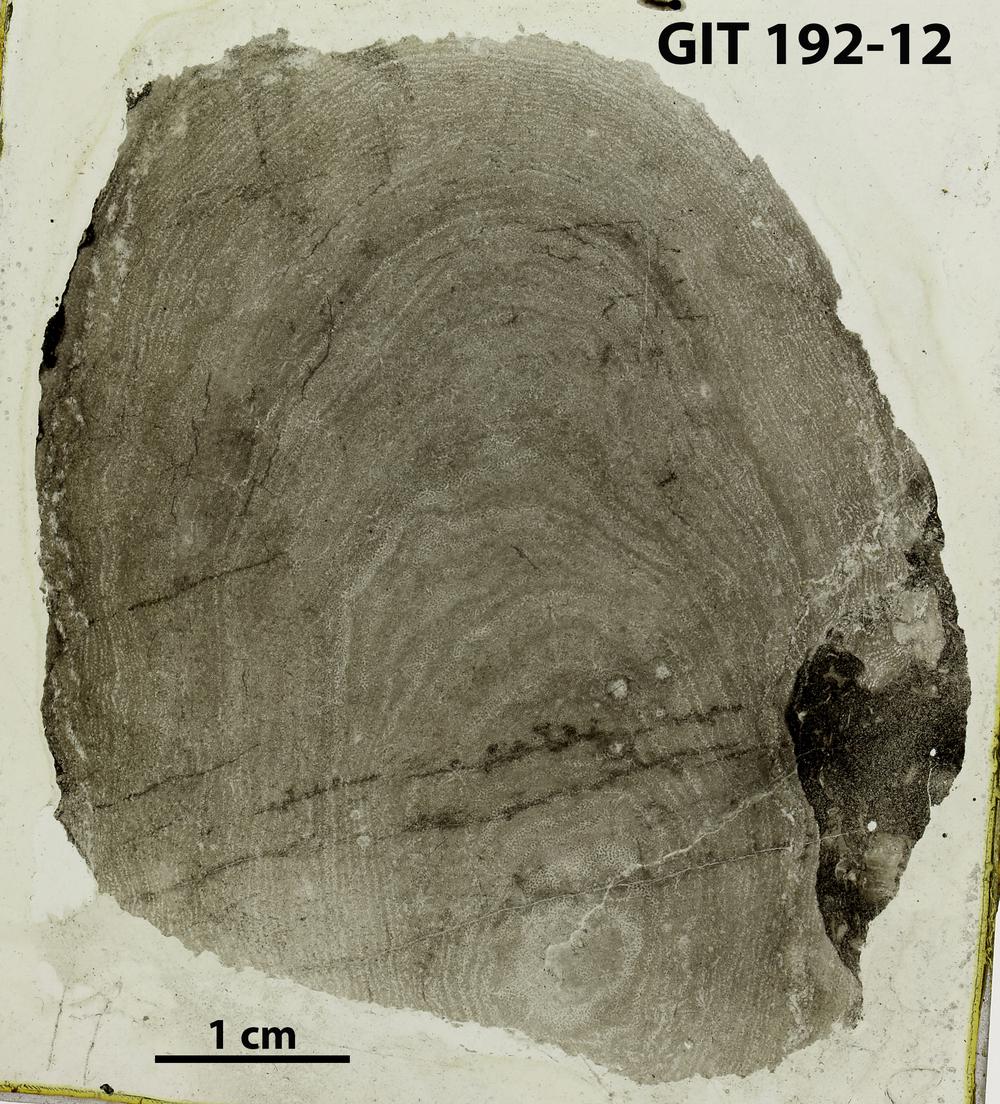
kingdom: Animalia
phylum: Porifera
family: Clathrodictyidae
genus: Clathrodictyon
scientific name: Clathrodictyon boreale
